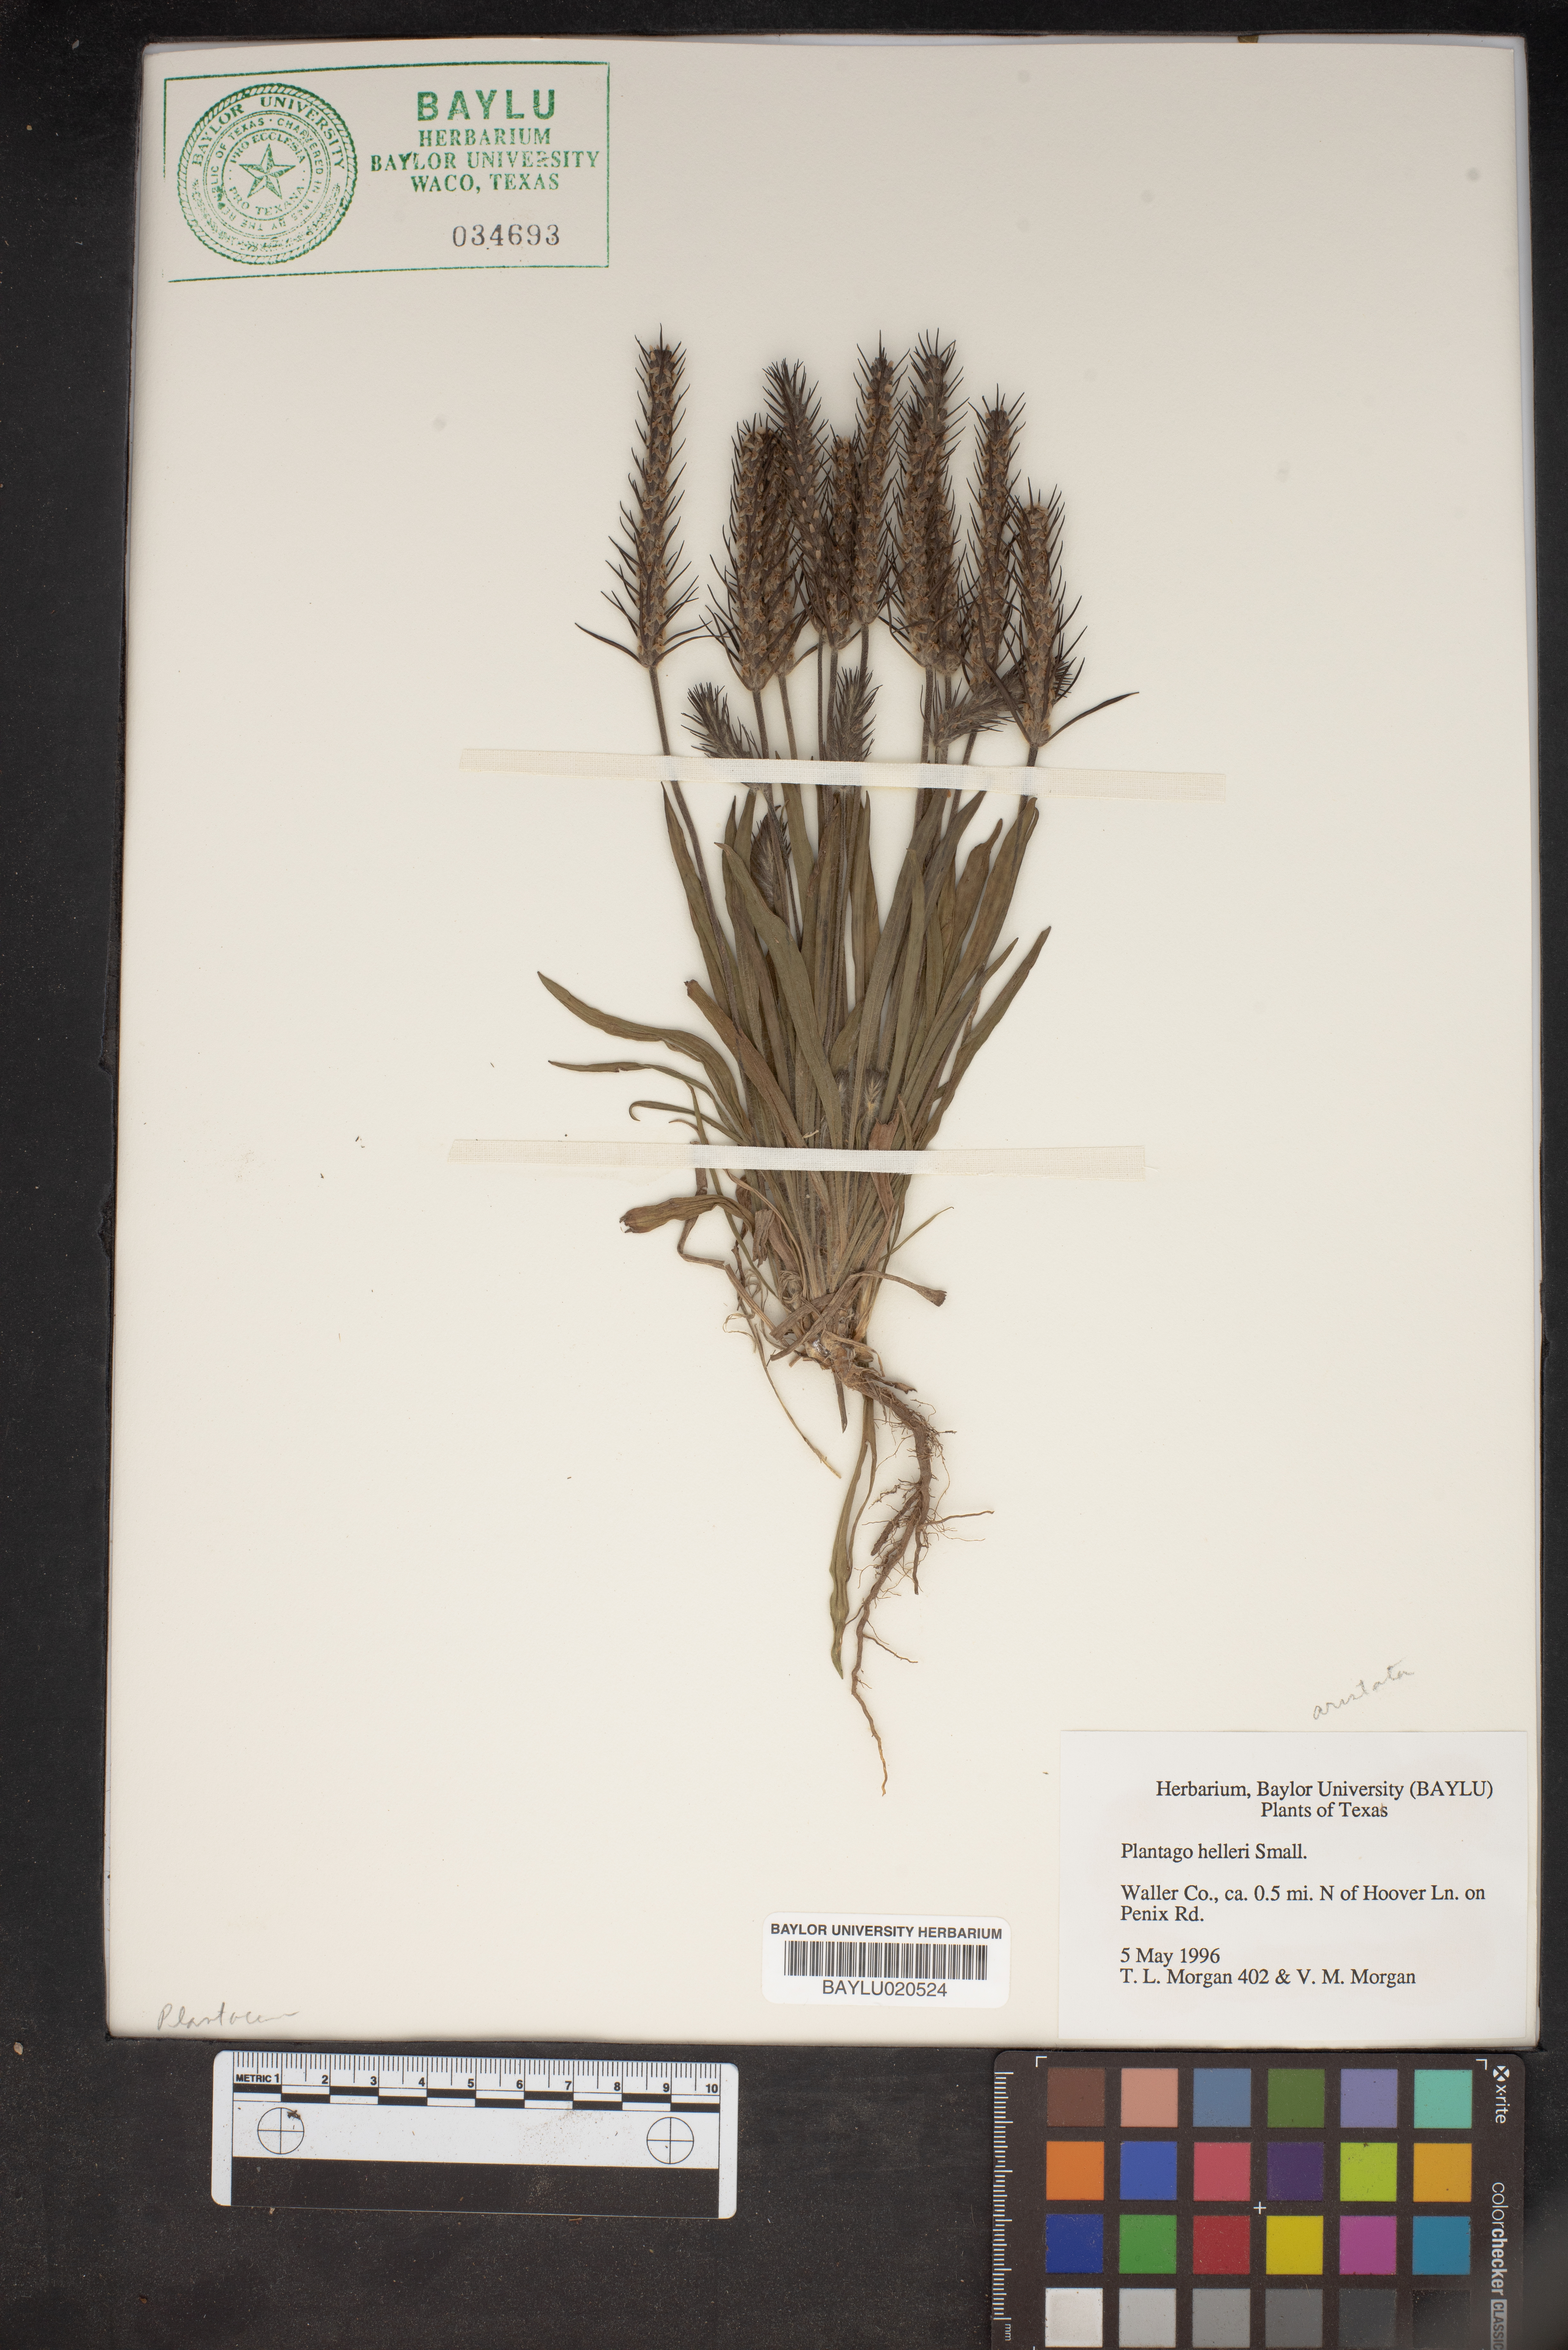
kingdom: Plantae
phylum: Tracheophyta
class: Magnoliopsida
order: Lamiales
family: Plantaginaceae
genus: Plantago
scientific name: Plantago helleri
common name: Heller's plantain
